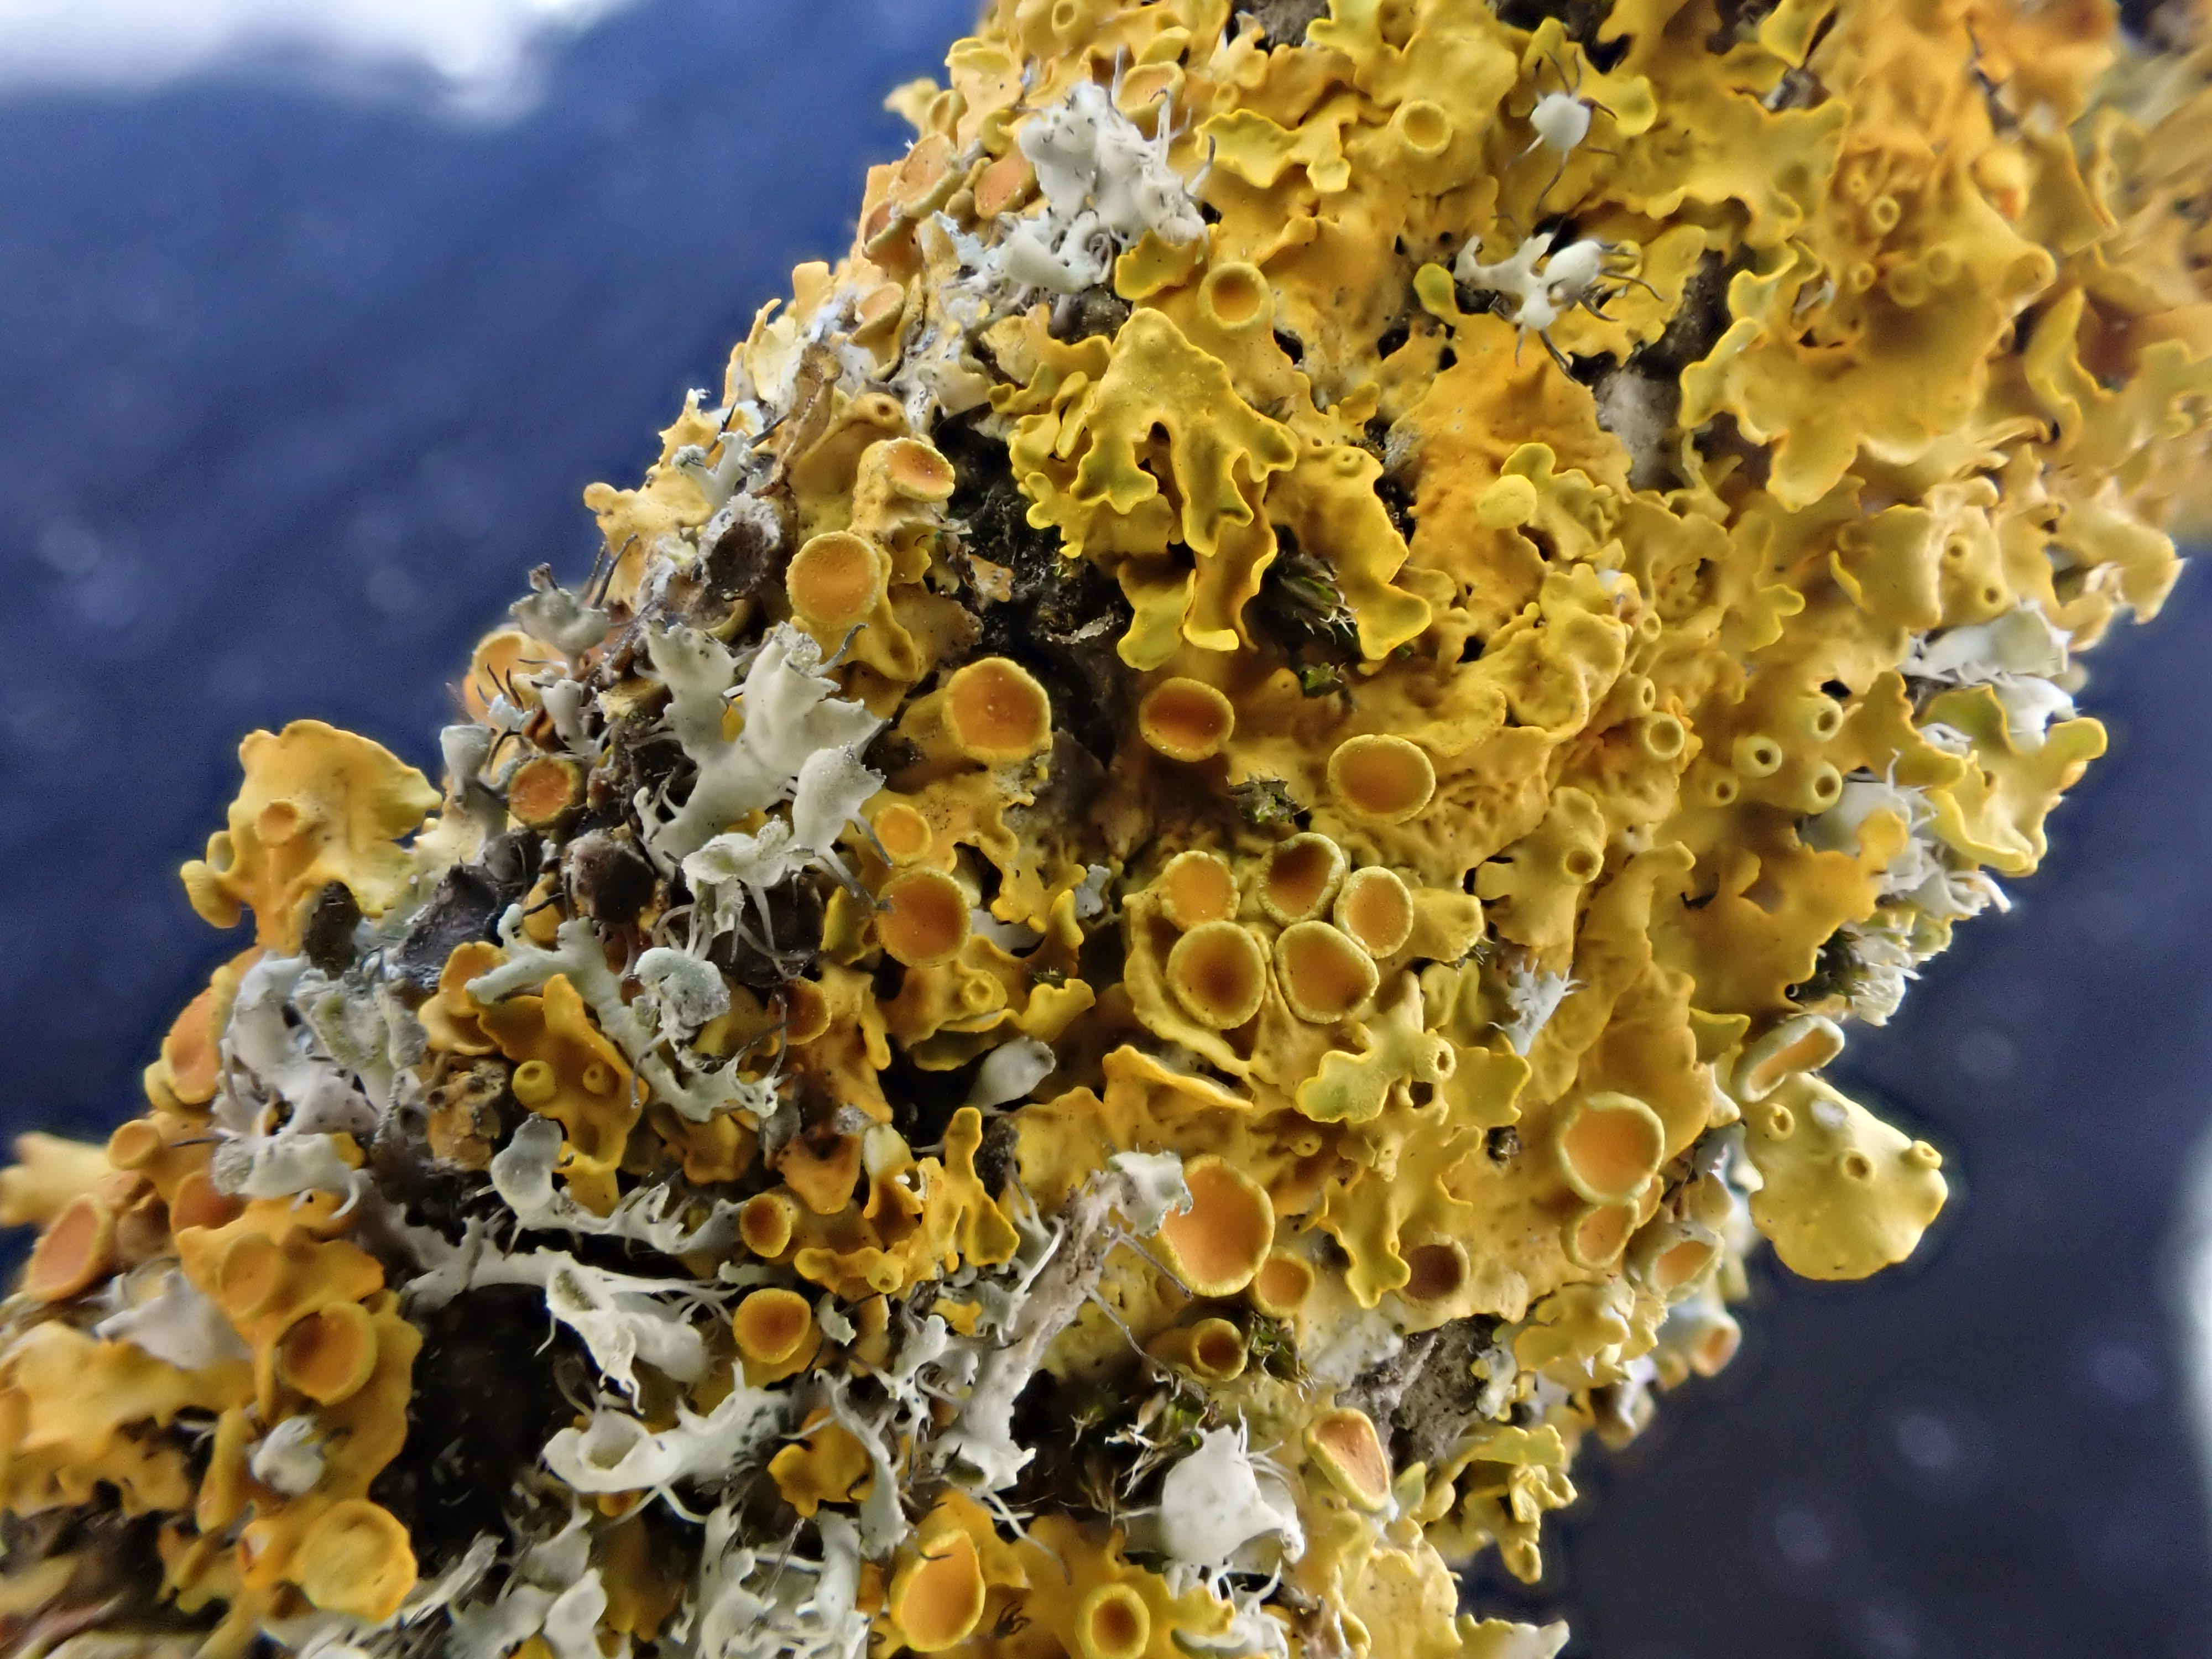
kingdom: Fungi
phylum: Ascomycota
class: Lecanoromycetes
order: Teloschistales
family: Teloschistaceae
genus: Xanthoria
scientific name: Xanthoria parietina
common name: almindelig væggelav
